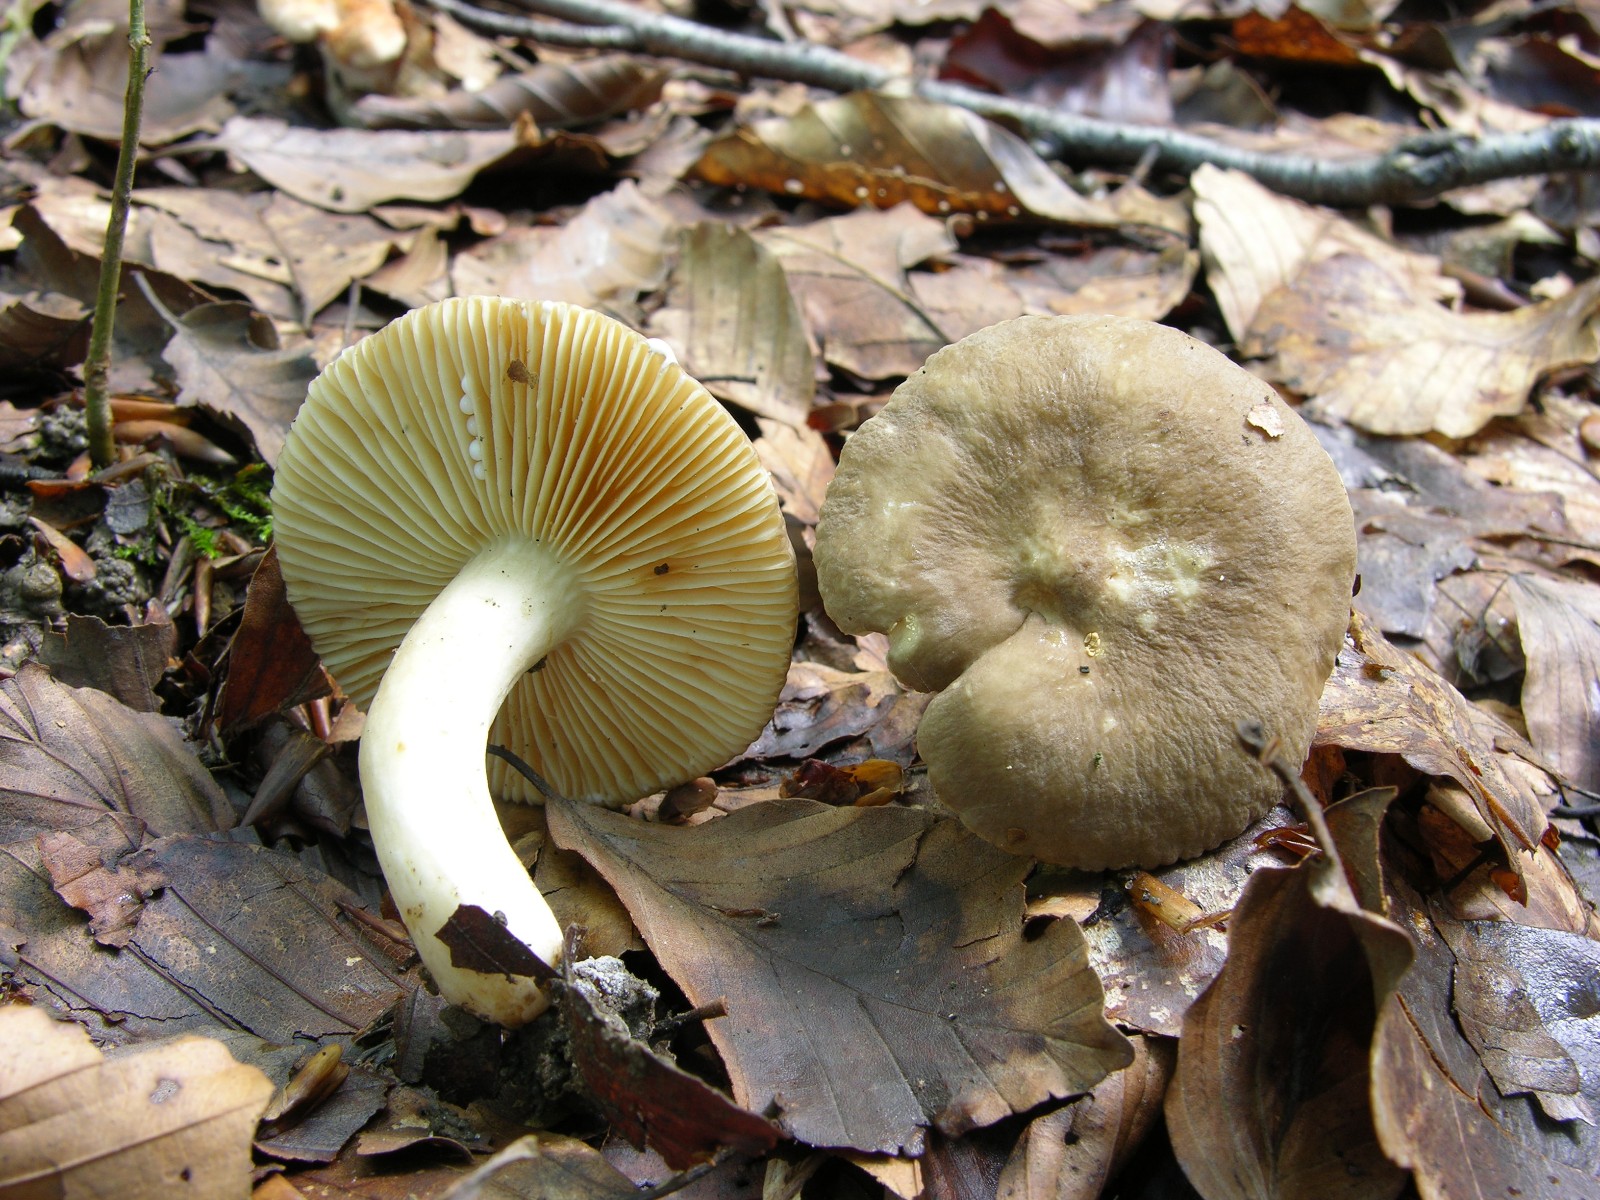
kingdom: Fungi
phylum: Basidiomycota
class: Agaricomycetes
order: Russulales
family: Russulaceae
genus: Lactarius
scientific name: Lactarius ruginosus
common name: gråbrun mælkehat
